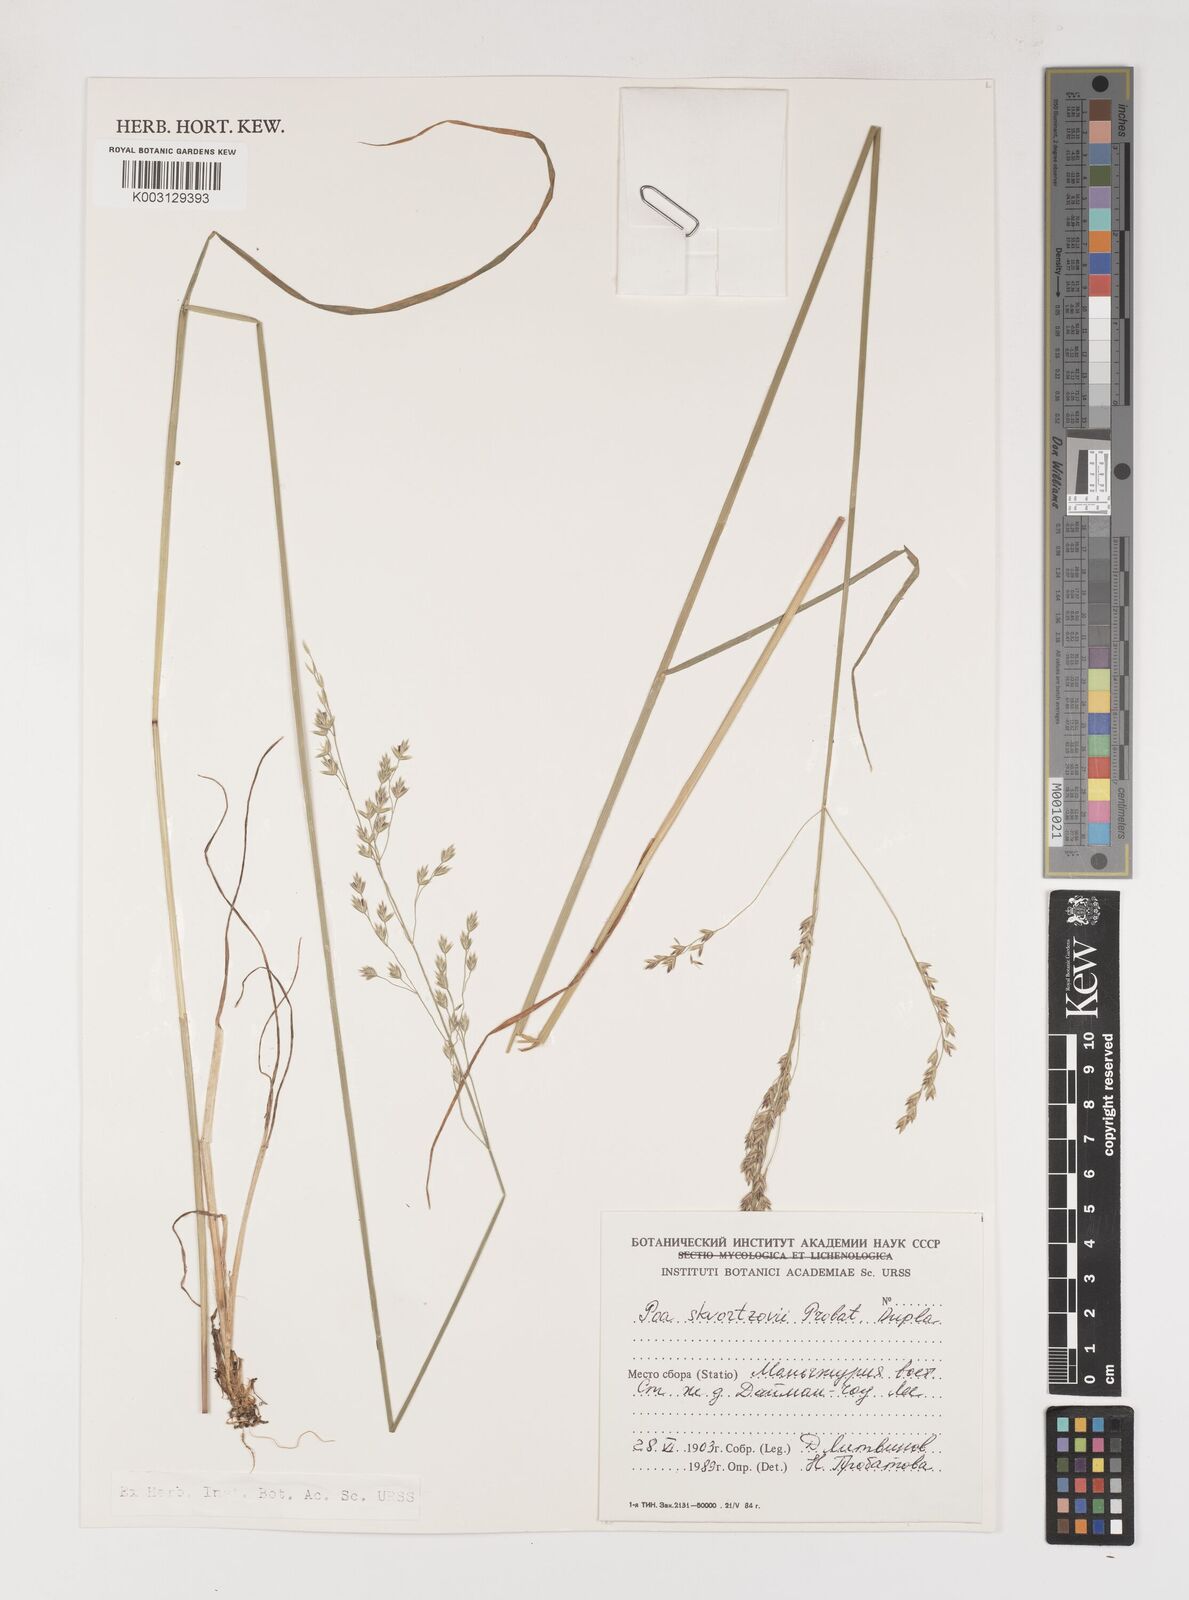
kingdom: Plantae
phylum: Tracheophyta
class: Liliopsida
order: Poales
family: Poaceae
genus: Poa
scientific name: Poa alta
